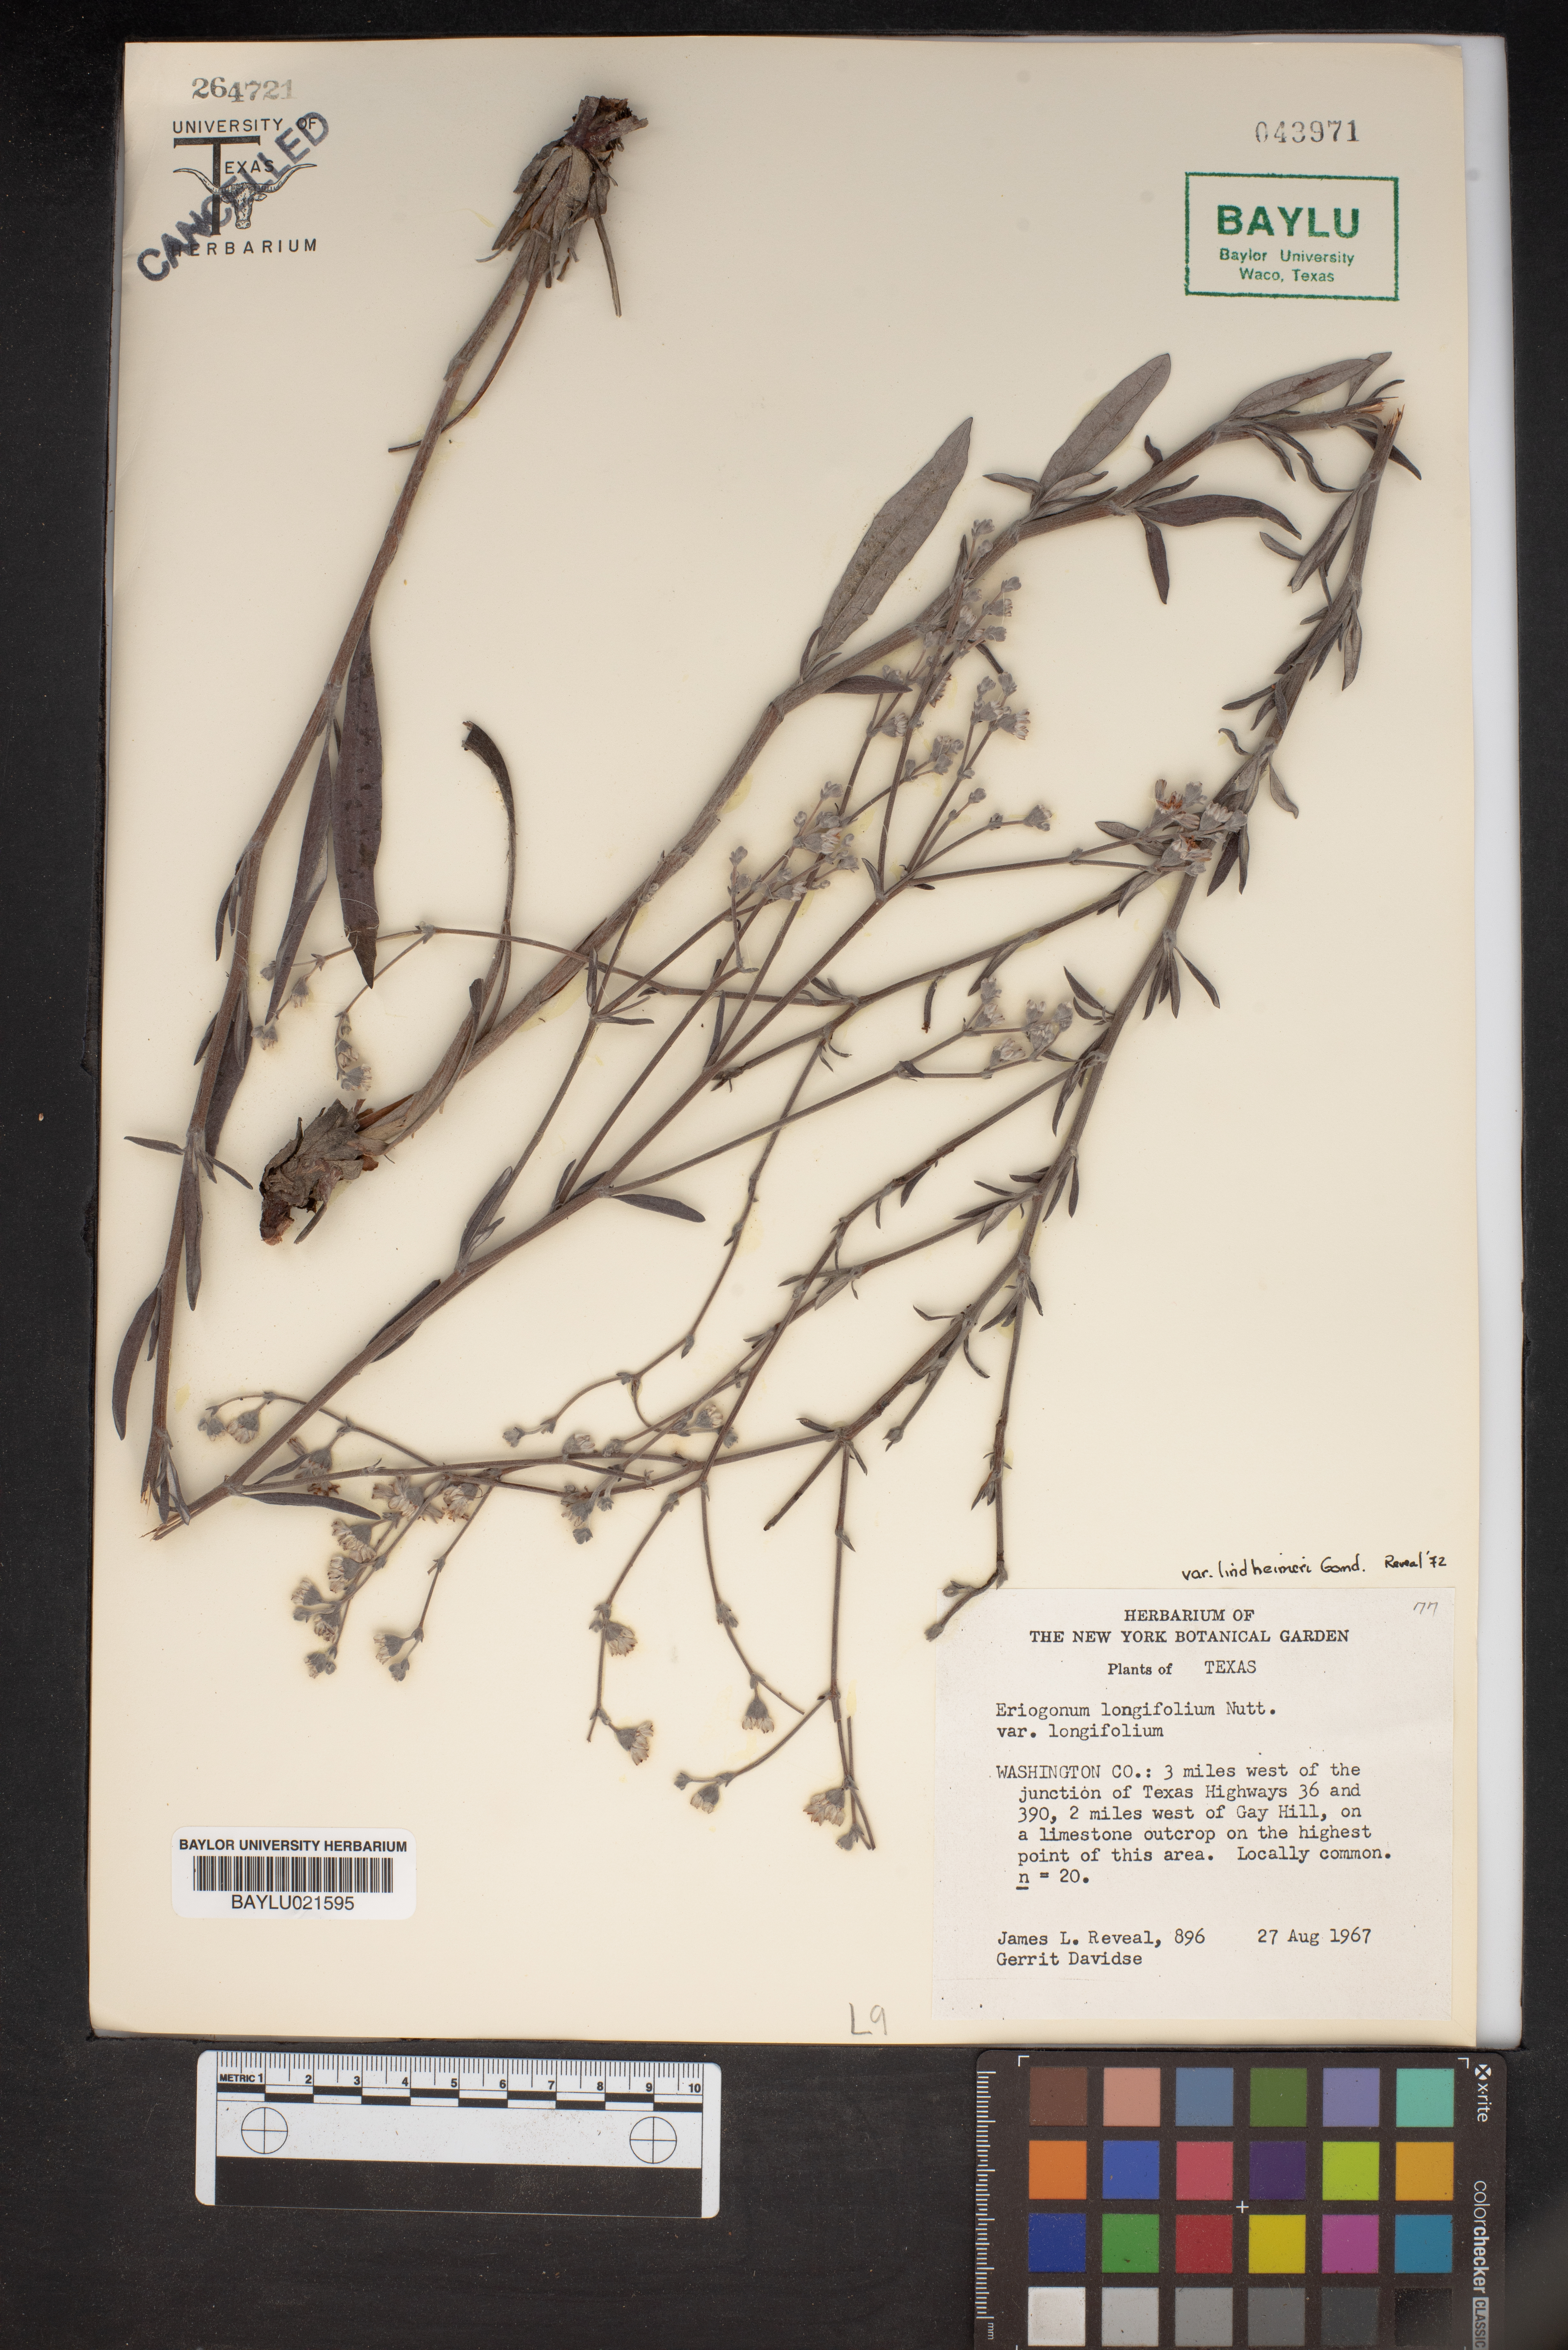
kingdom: Plantae
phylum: Tracheophyta
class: Magnoliopsida
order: Caryophyllales
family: Polygonaceae
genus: Eriogonum
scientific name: Eriogonum longifolium
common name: Longleaf wild buckwheat
